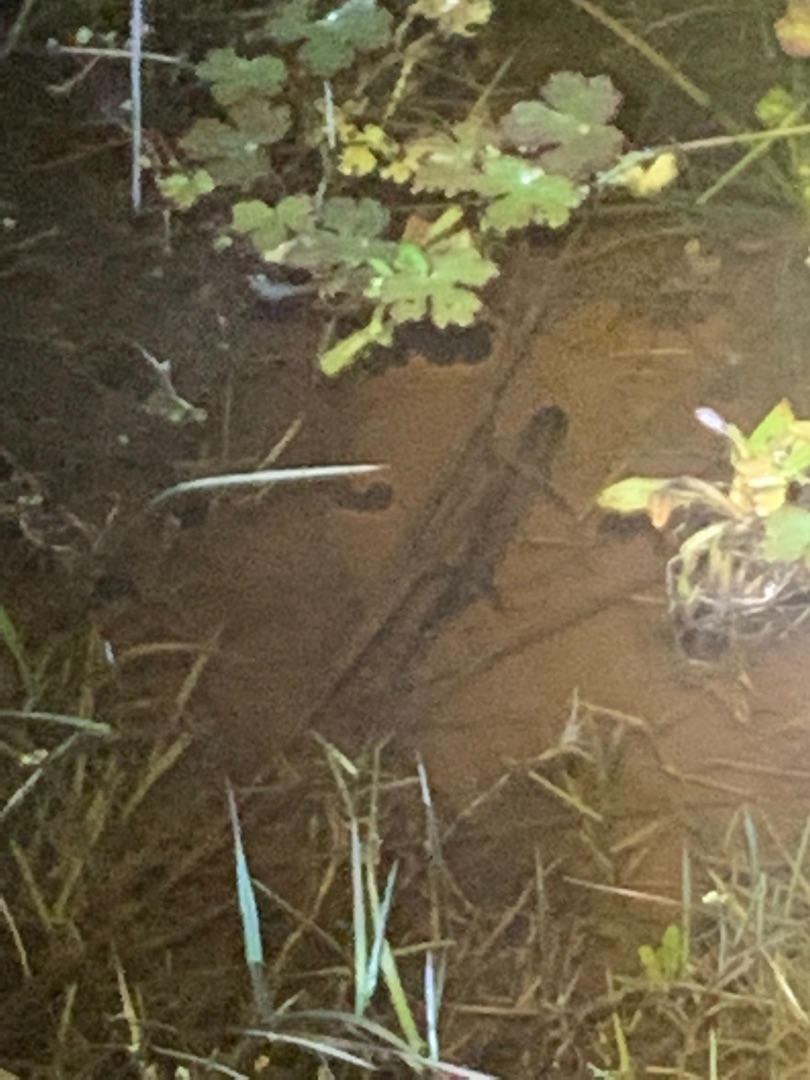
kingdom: Animalia
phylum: Chordata
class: Amphibia
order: Caudata
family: Salamandridae
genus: Triturus
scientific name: Triturus cristatus
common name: Stor vandsalamander
